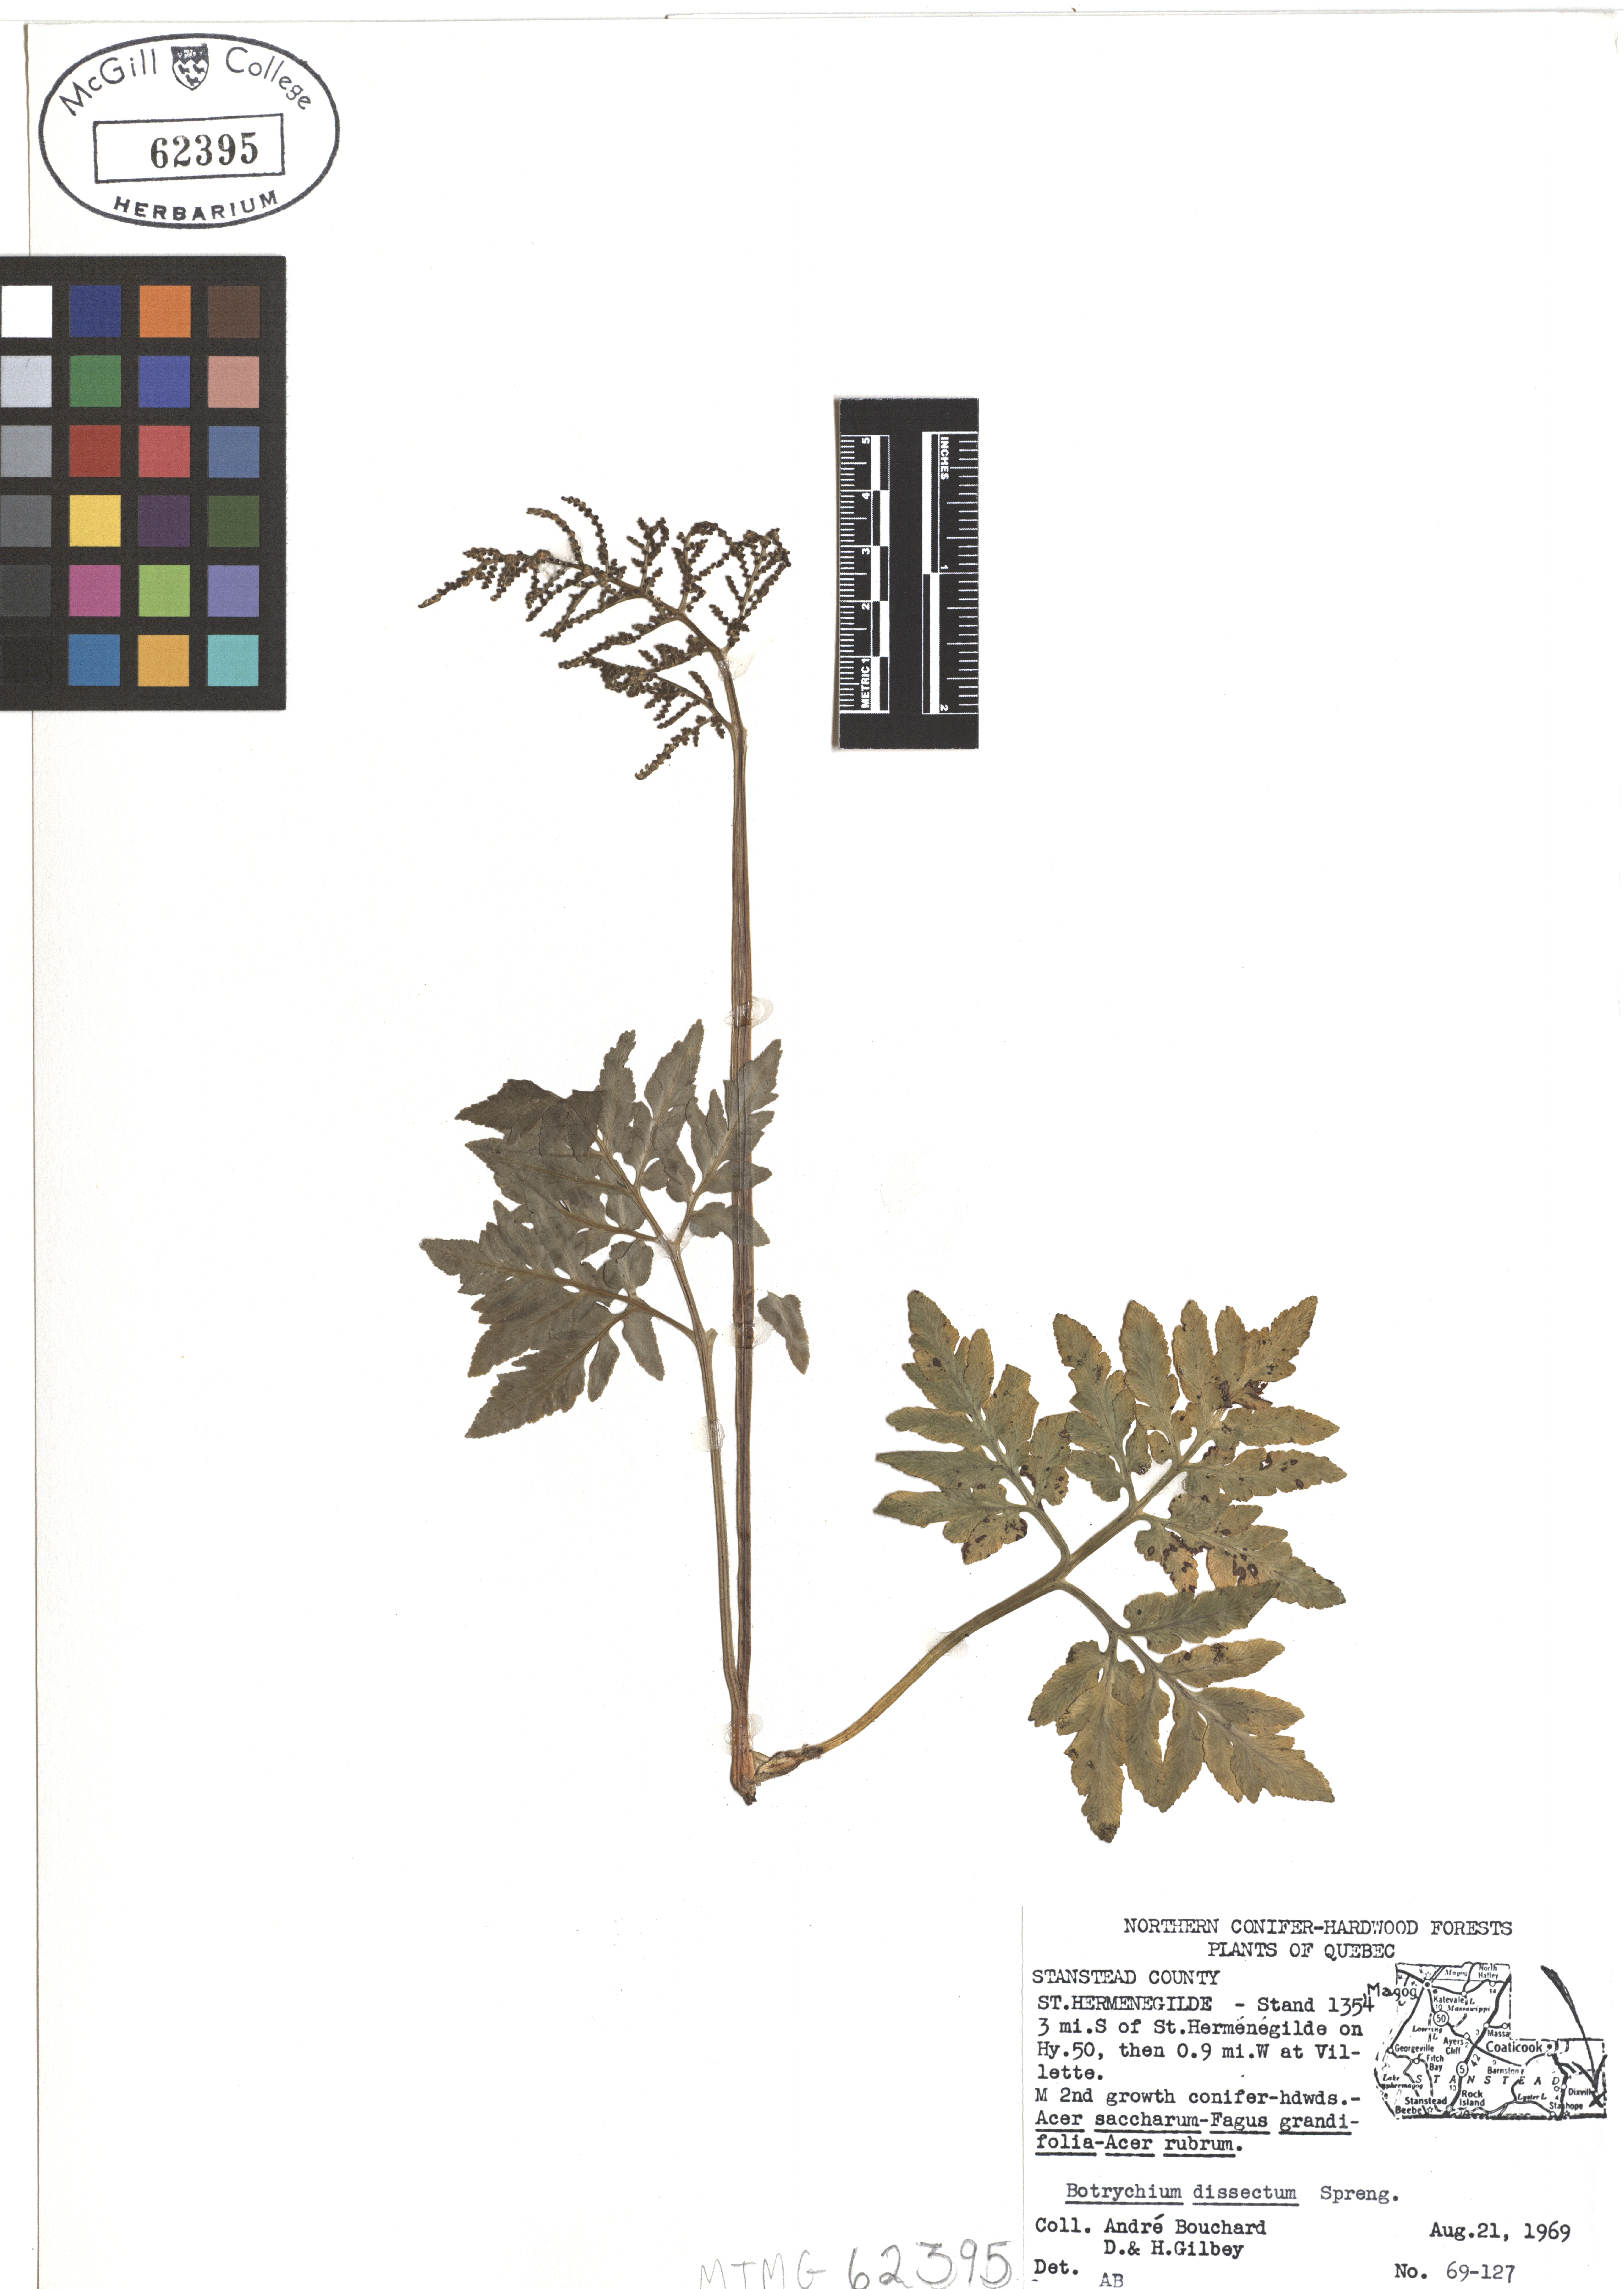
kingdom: Plantae
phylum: Tracheophyta
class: Polypodiopsida
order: Ophioglossales
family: Ophioglossaceae
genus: Sceptridium
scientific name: Sceptridium dissectum
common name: Cut-leaved grapefern
